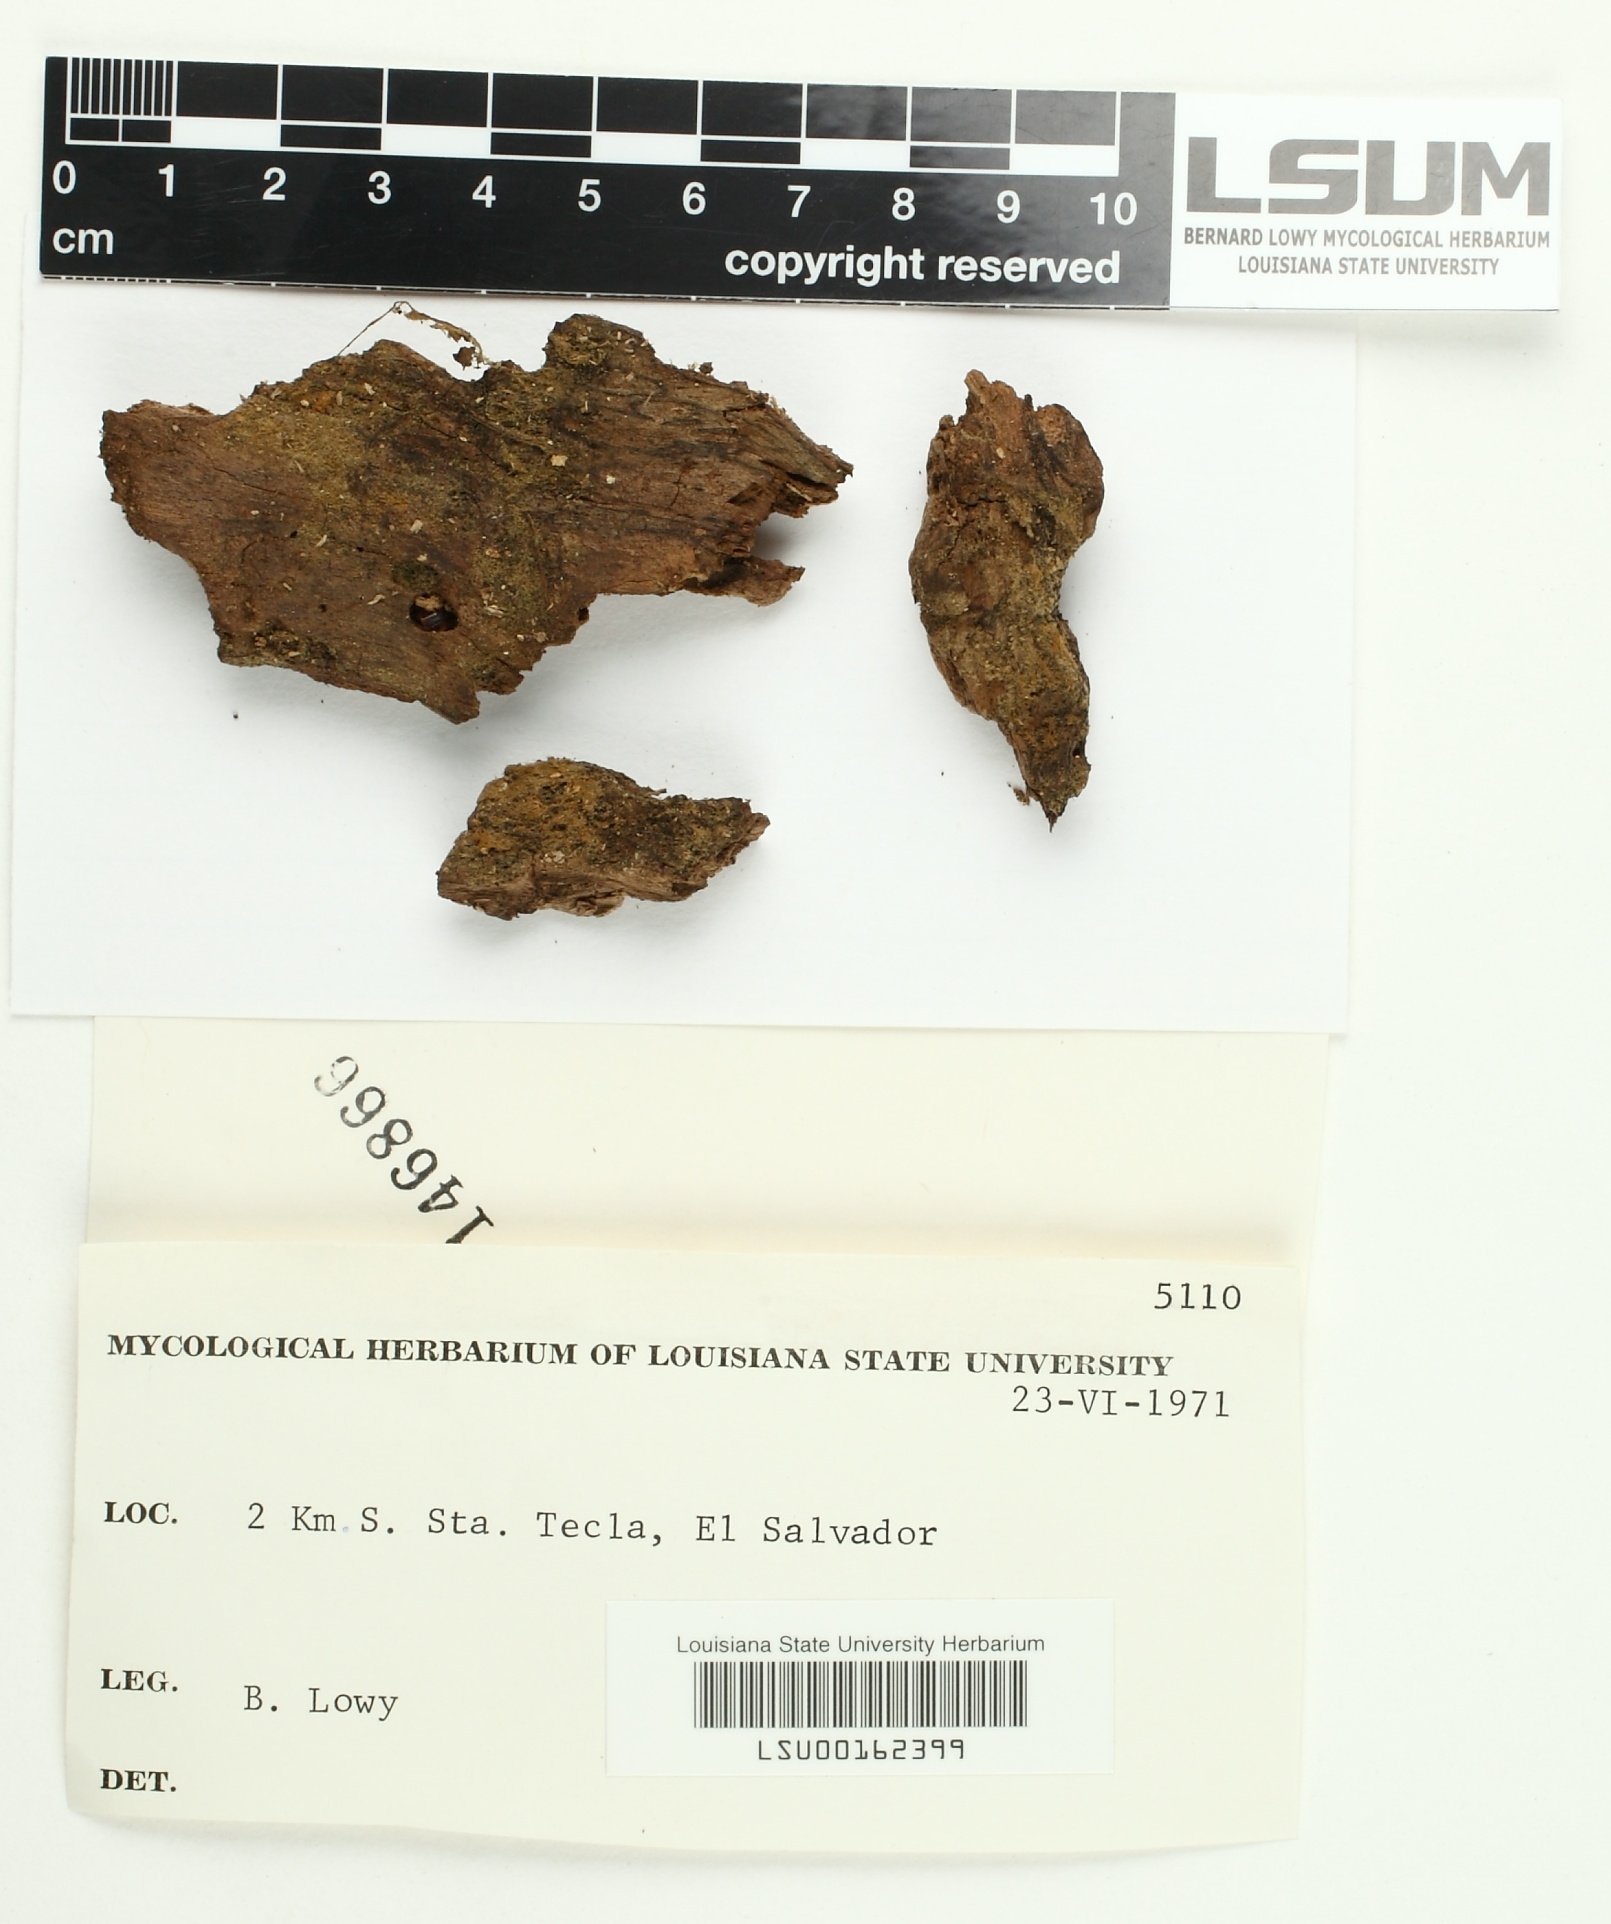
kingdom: Fungi
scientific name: Fungi
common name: Fungi
